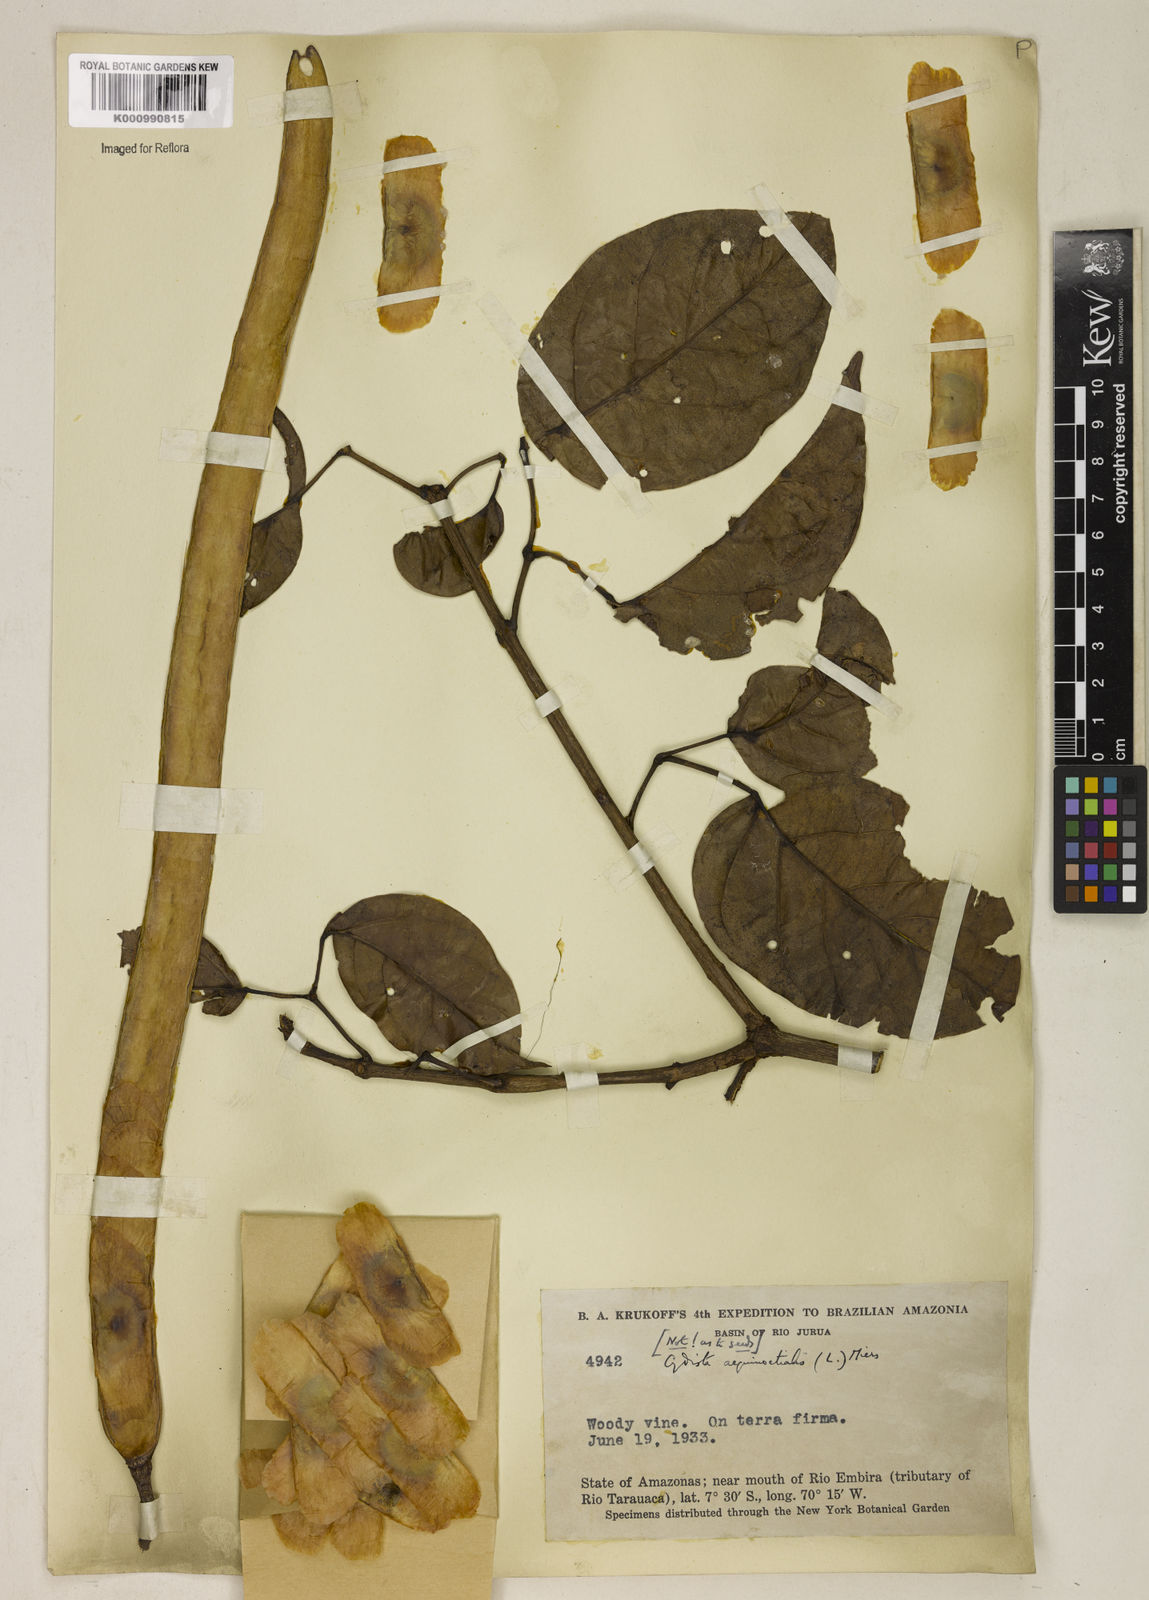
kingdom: Plantae
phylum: Tracheophyta
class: Magnoliopsida
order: Lamiales
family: Bignoniaceae
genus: Bignonia
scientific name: Bignonia aequinoctialis
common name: Garlicvine
